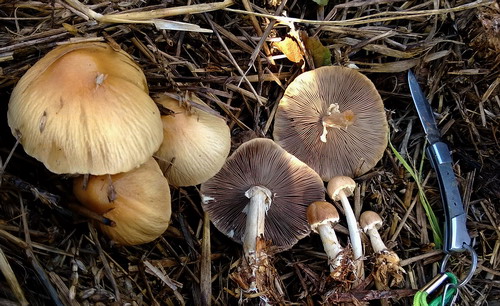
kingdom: Fungi
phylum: Basidiomycota
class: Agaricomycetes
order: Agaricales
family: Strophariaceae
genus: Agrocybe
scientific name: Agrocybe rivulosa
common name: året agerhat
